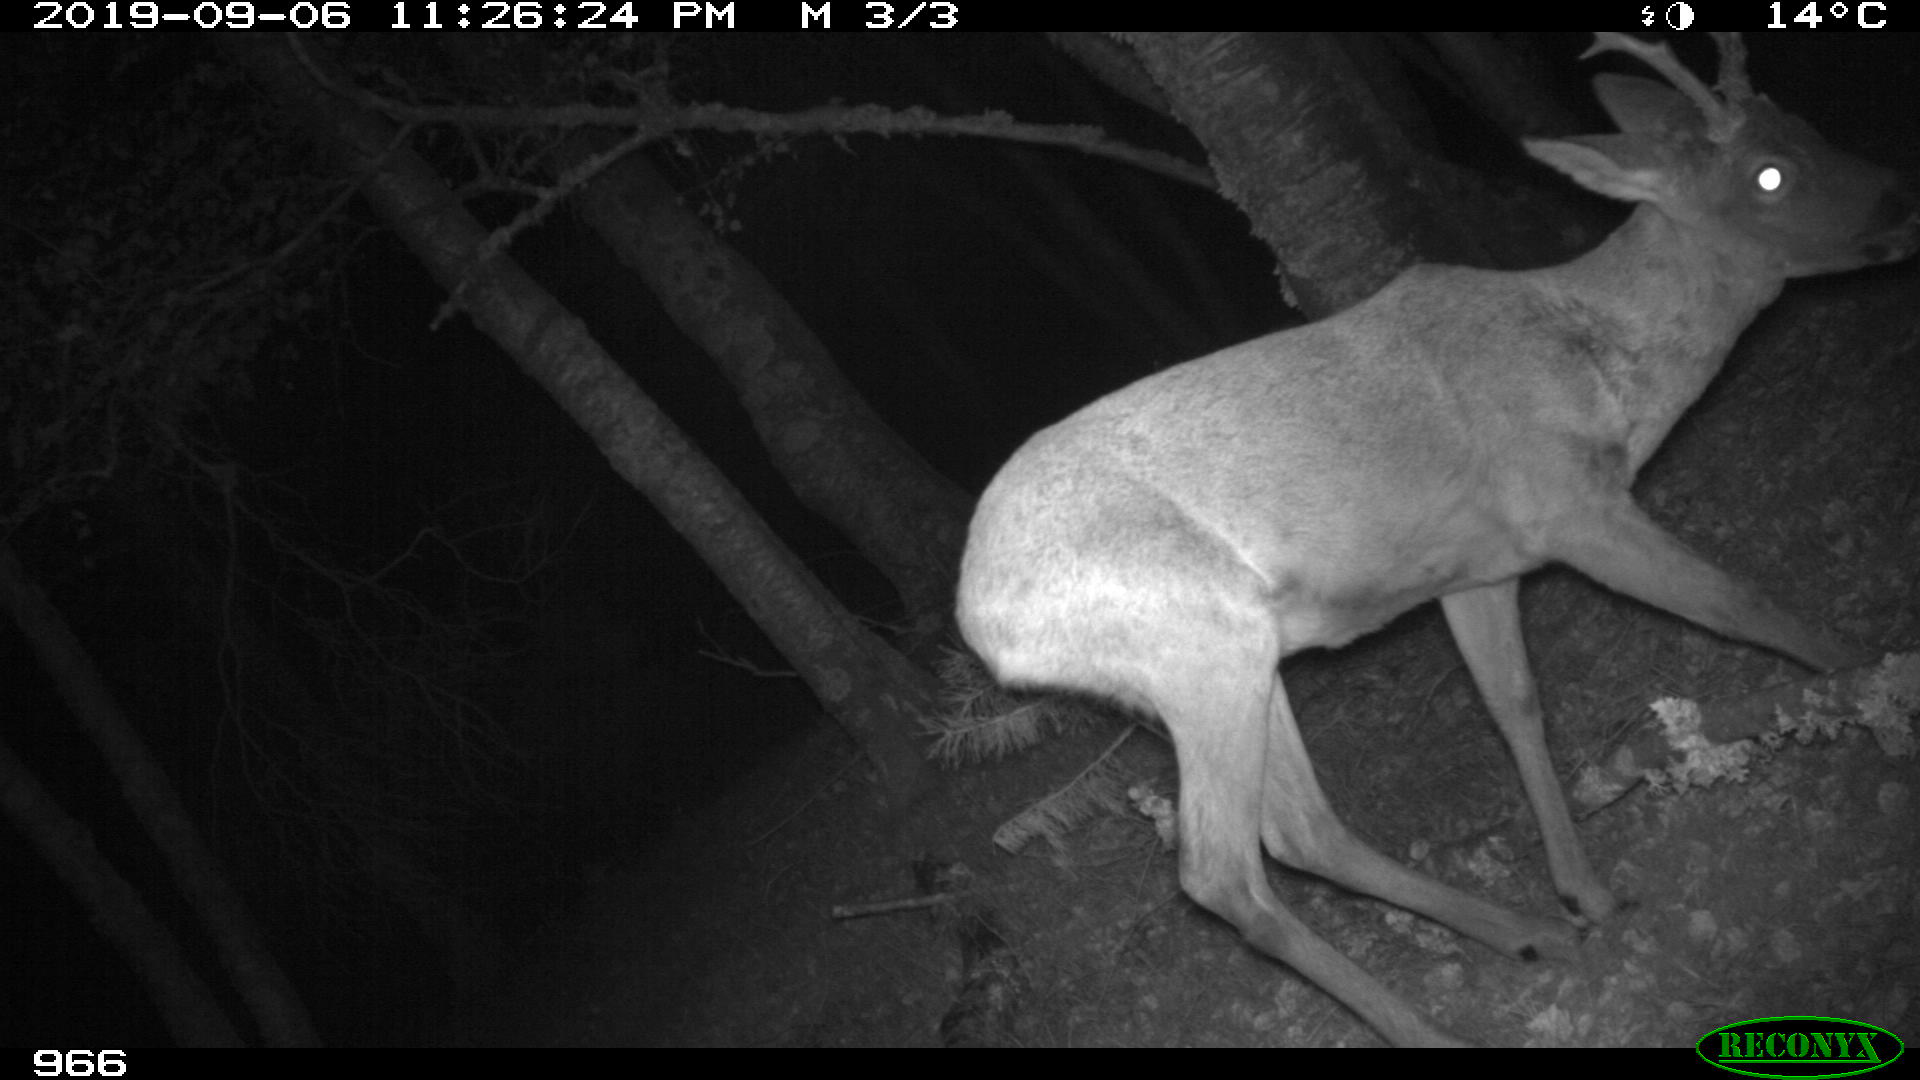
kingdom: Animalia
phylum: Chordata
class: Mammalia
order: Artiodactyla
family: Cervidae
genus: Capreolus
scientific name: Capreolus capreolus
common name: Western roe deer
